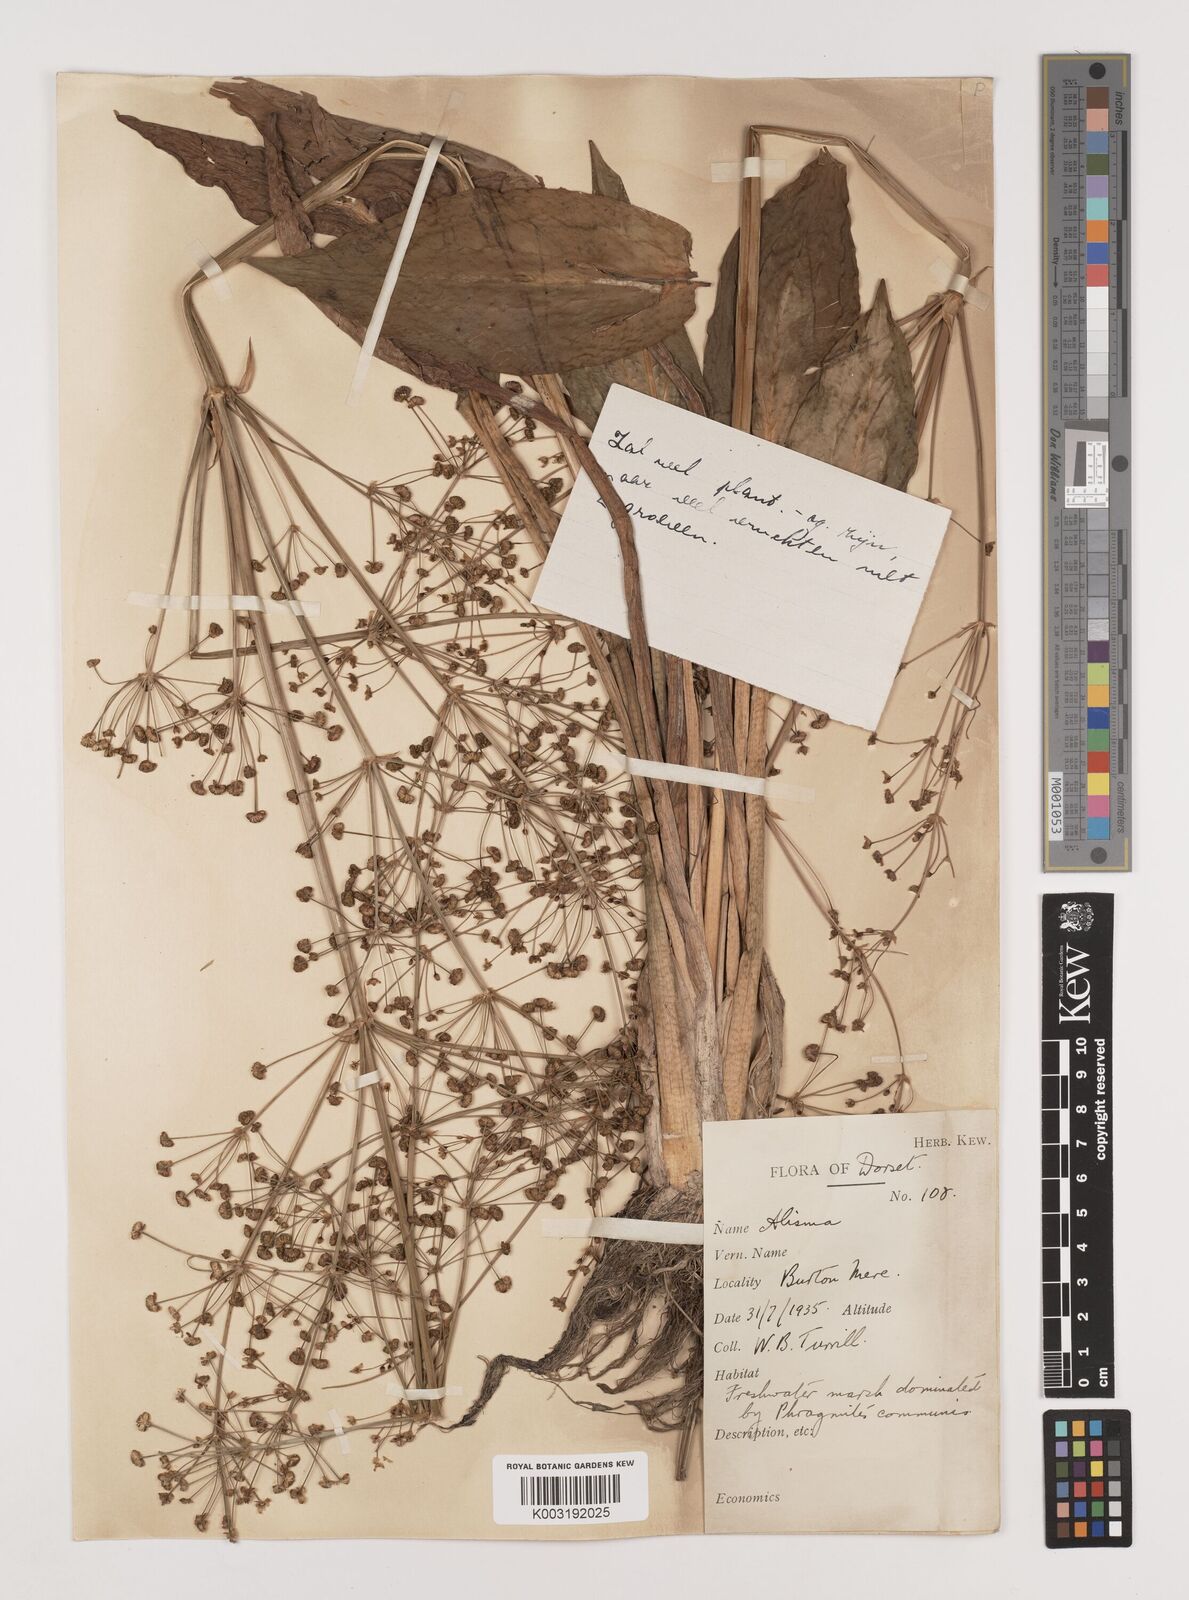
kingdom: Plantae
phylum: Tracheophyta
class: Liliopsida
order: Alismatales
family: Alismataceae
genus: Alisma
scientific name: Alisma plantago-aquatica
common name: Water-plantain
